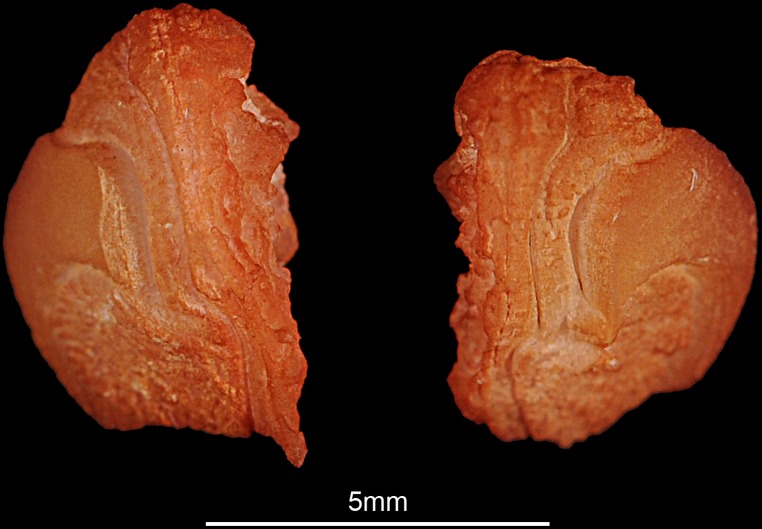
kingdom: Animalia
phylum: Chordata
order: Perciformes
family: Sciaenidae
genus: Otolithes
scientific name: Otolithes ruber
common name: Croaker
